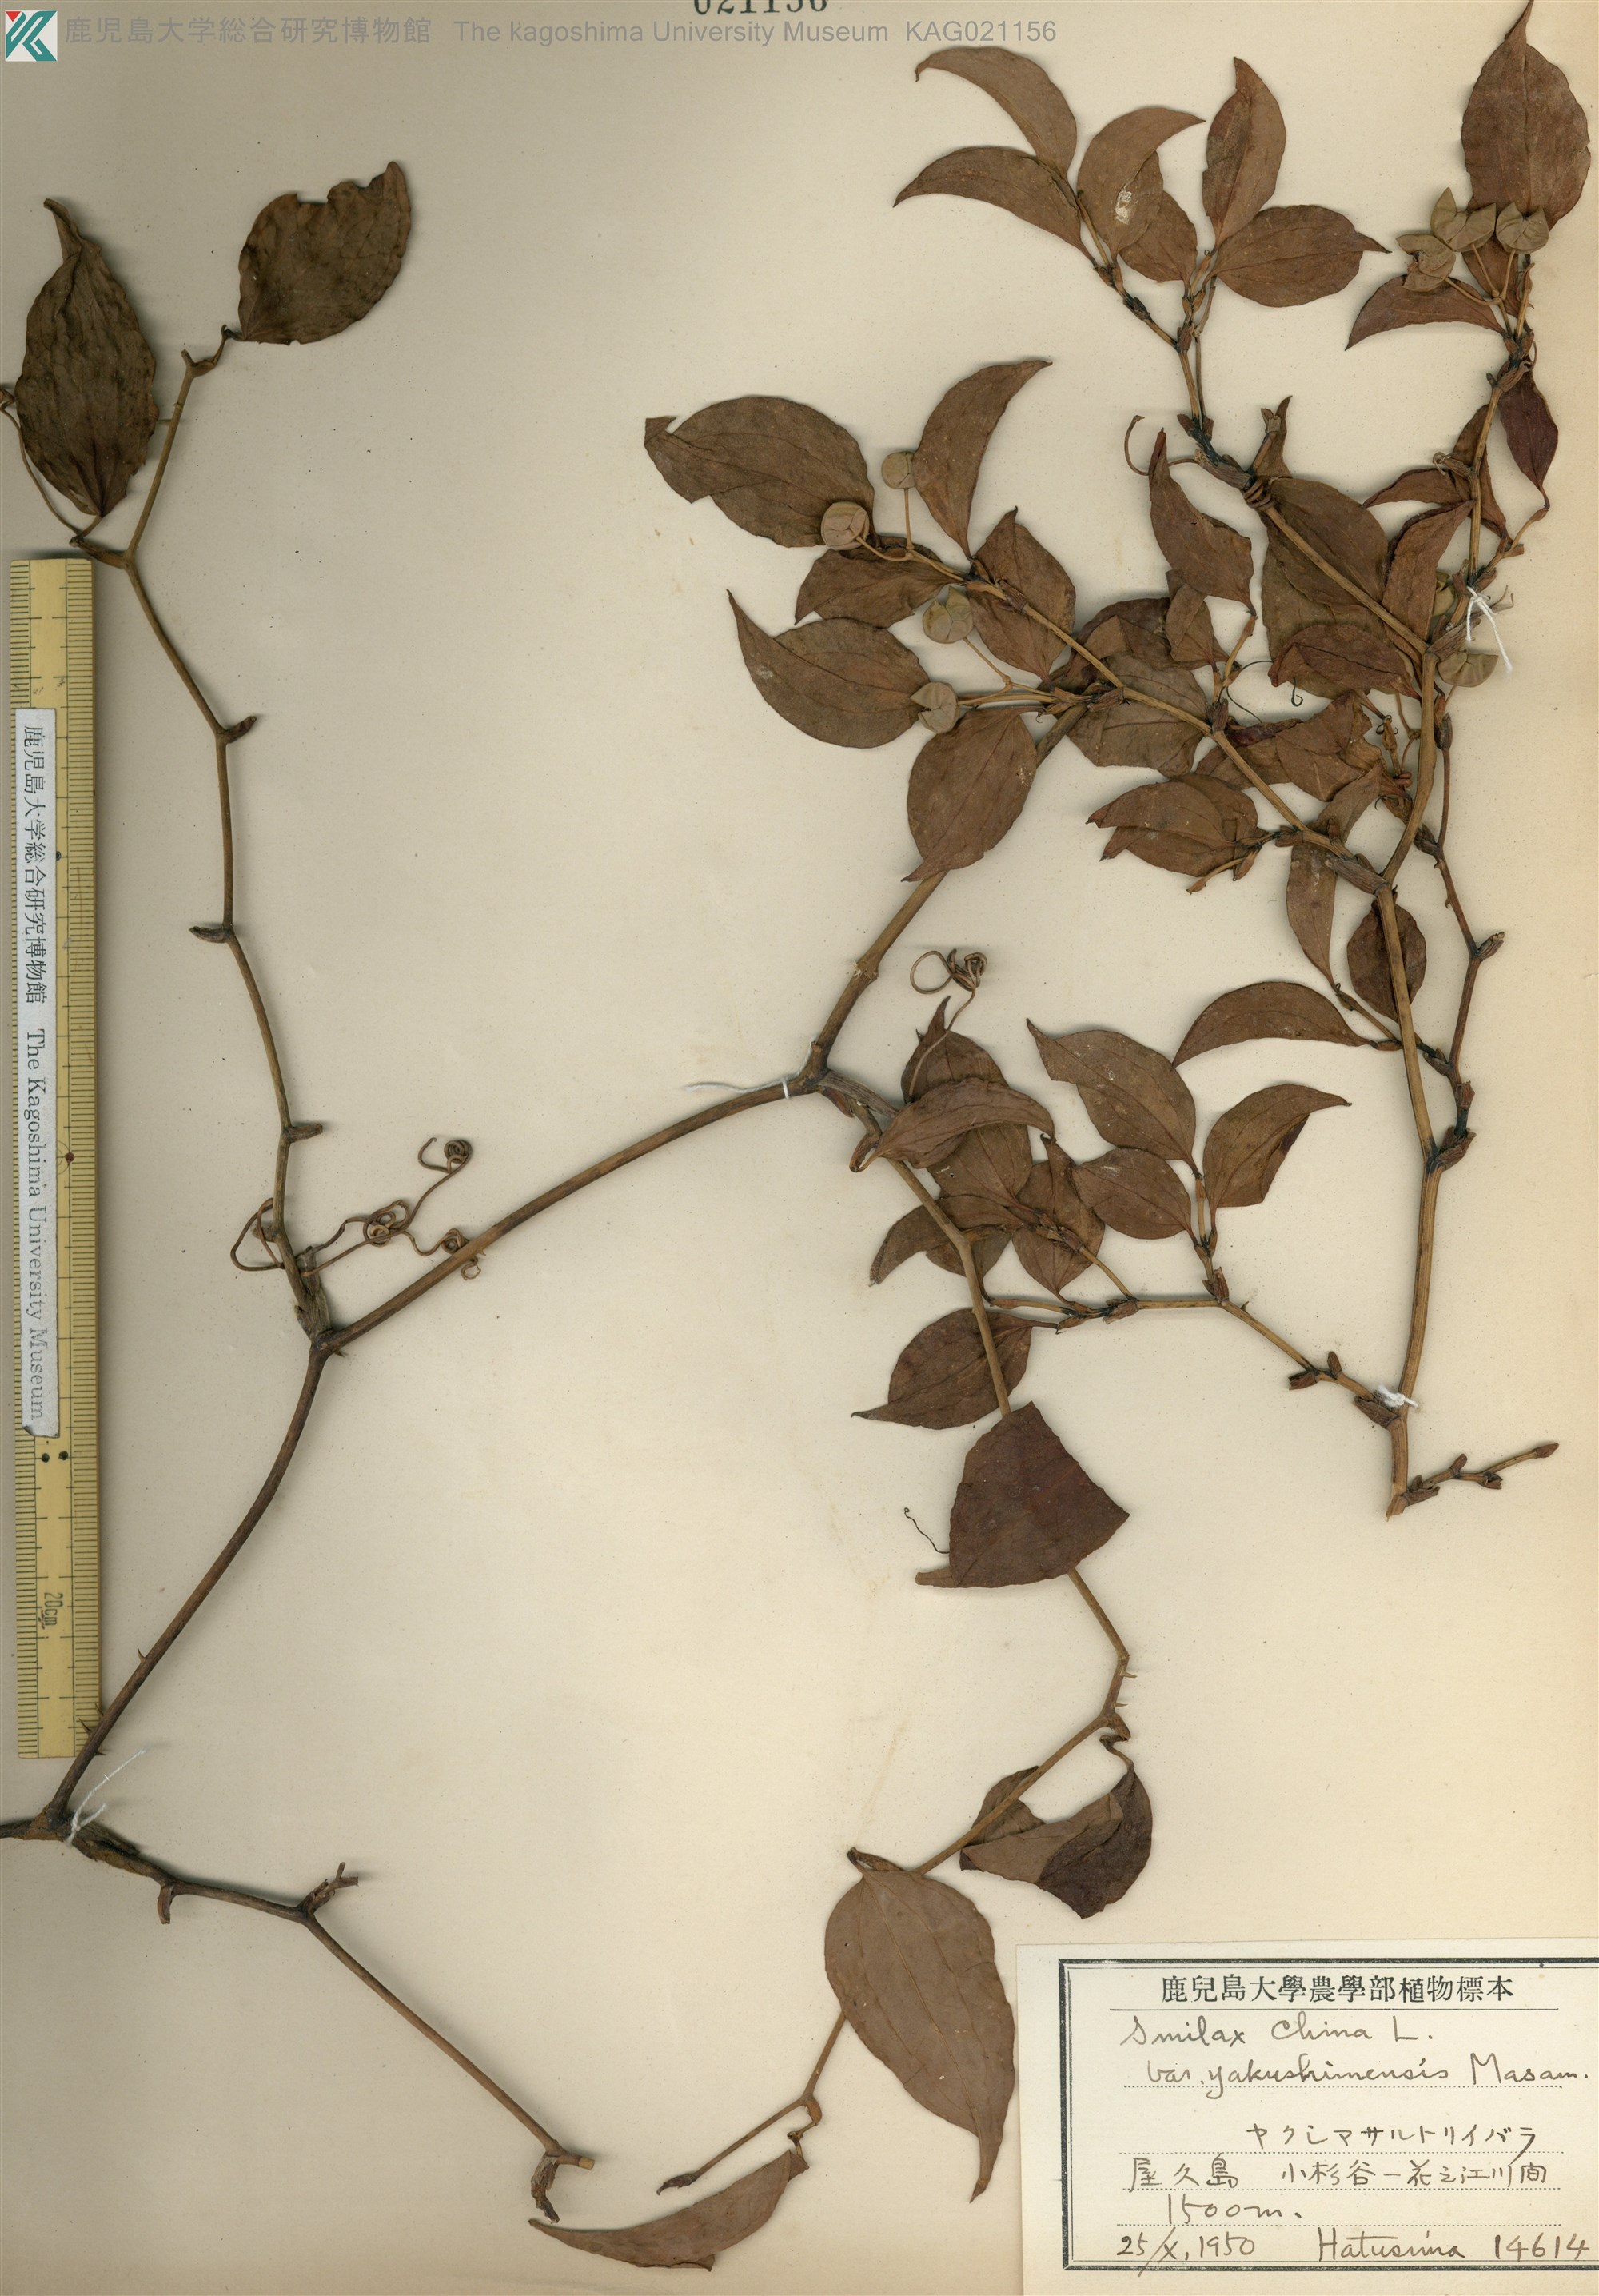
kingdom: Plantae
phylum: Tracheophyta
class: Liliopsida
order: Liliales
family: Smilacaceae
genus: Smilax
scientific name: Smilax china
